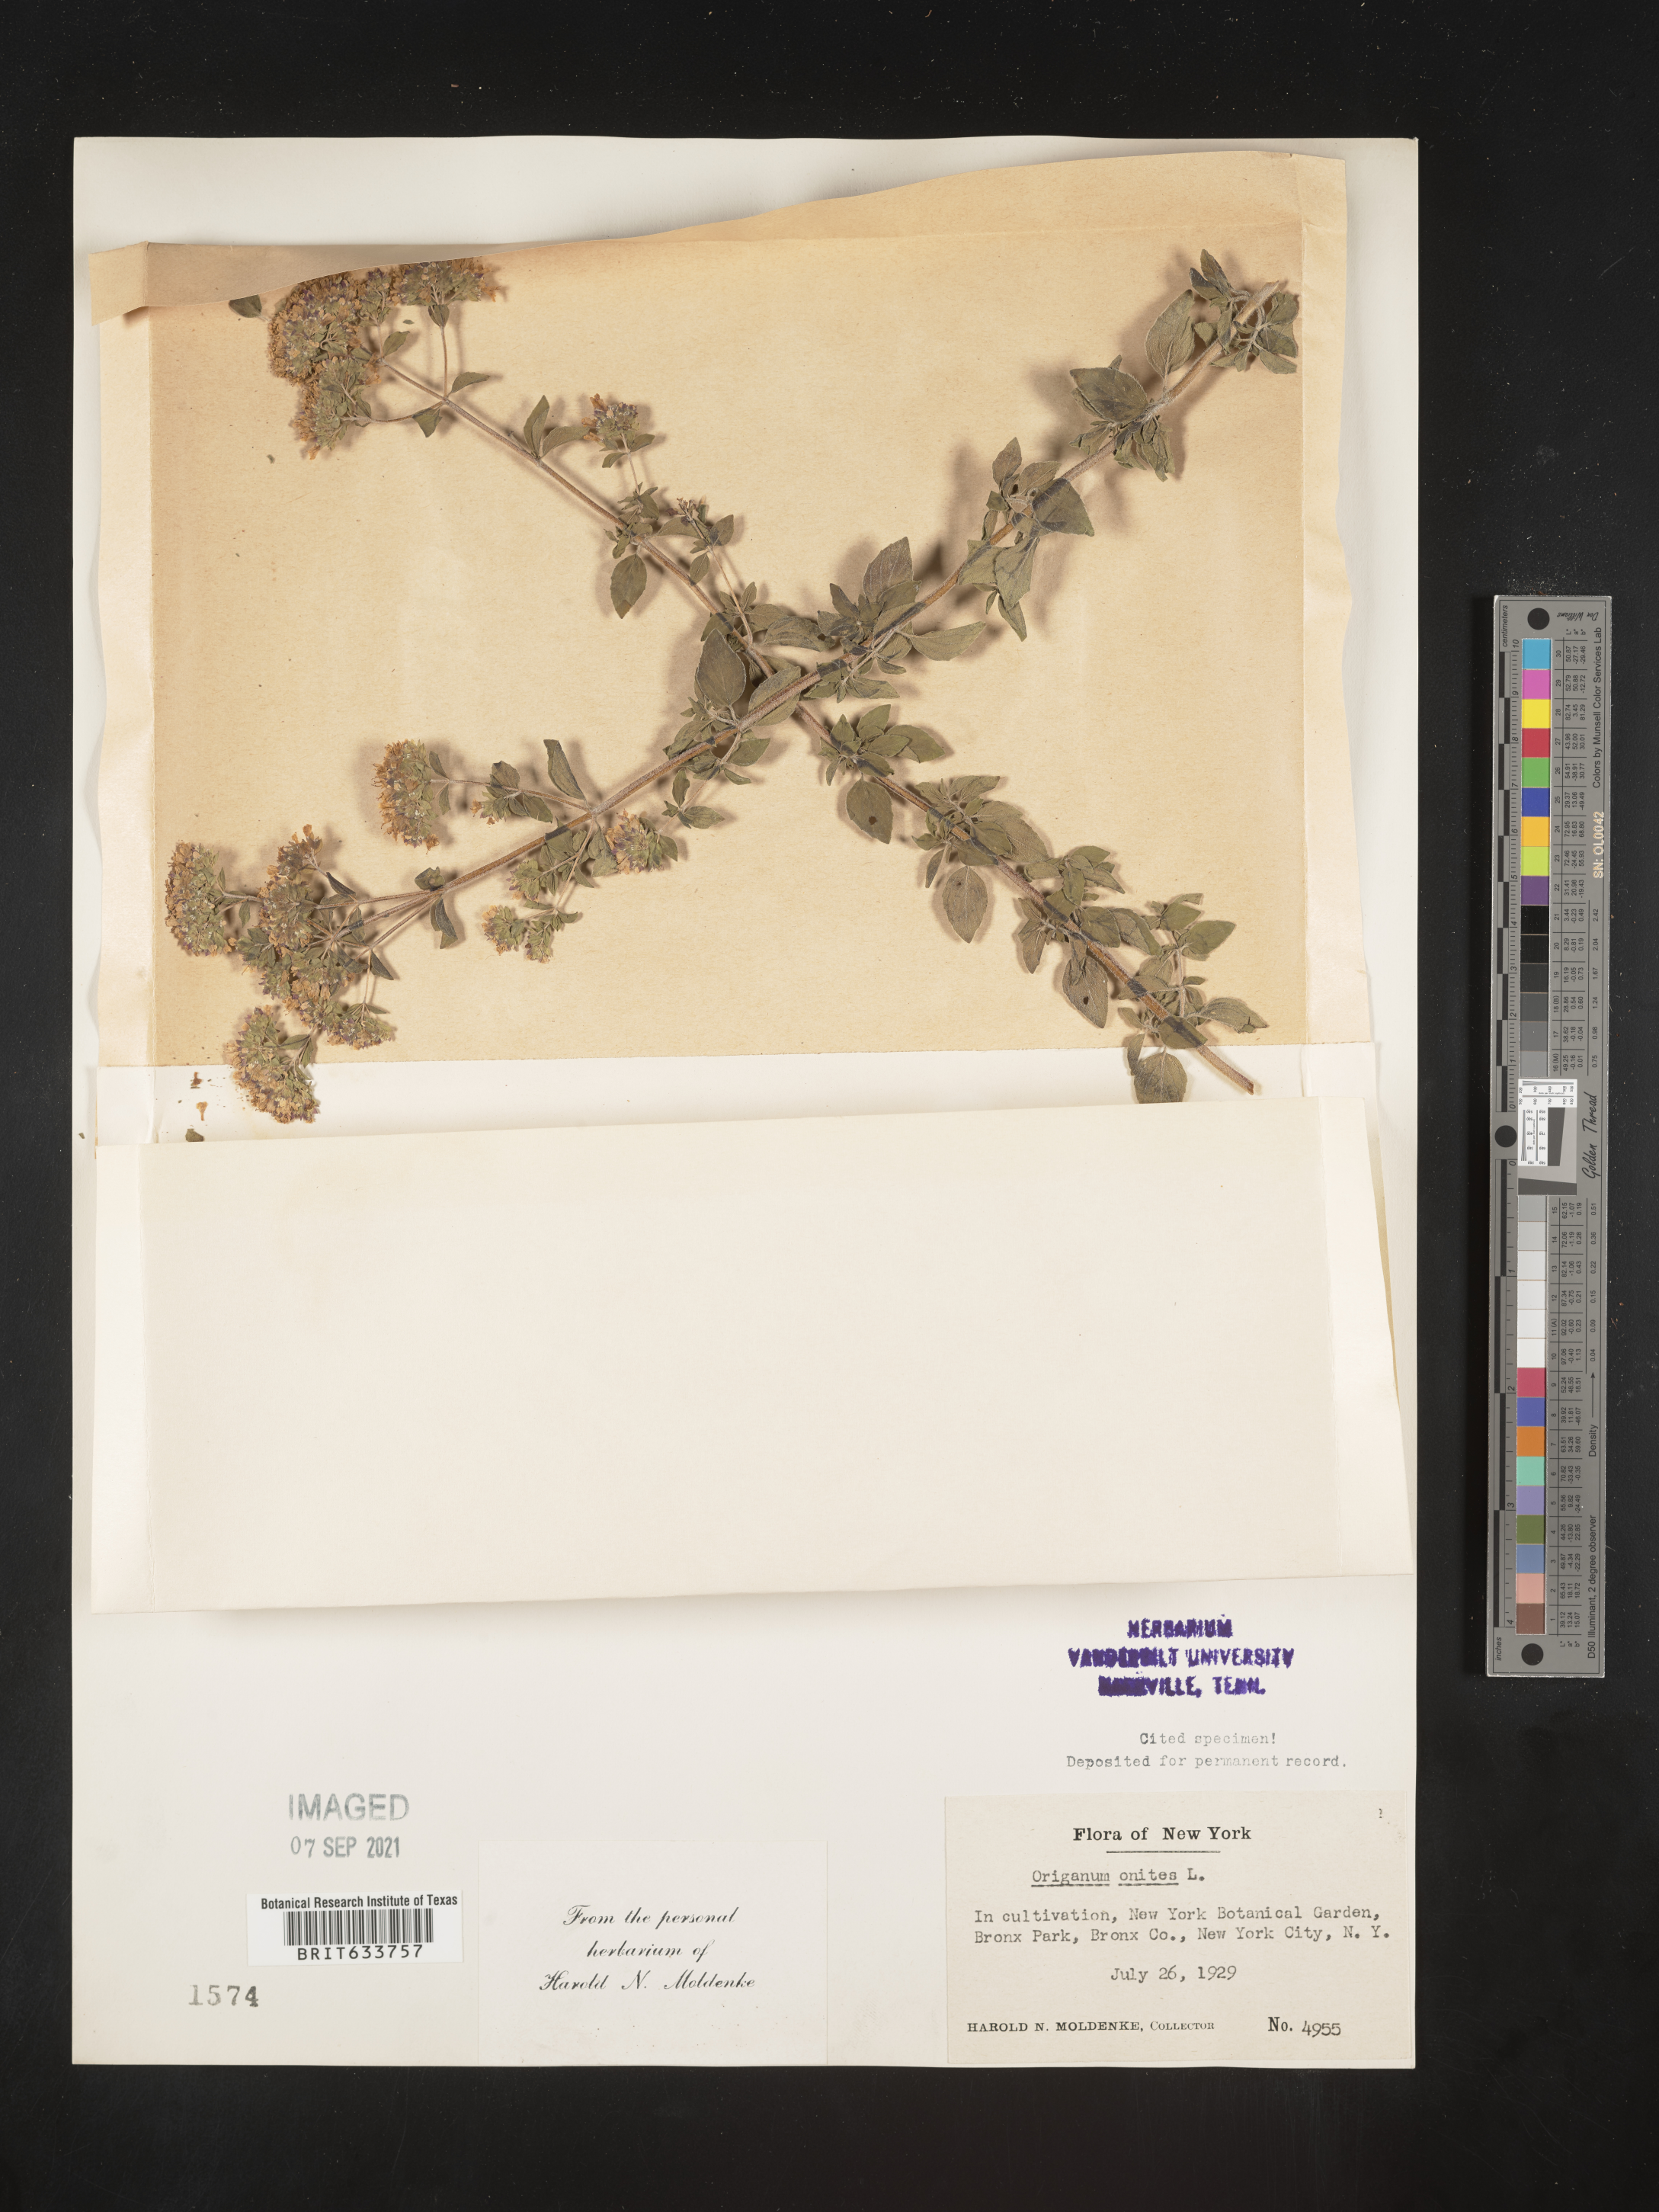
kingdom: Plantae
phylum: Tracheophyta
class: Magnoliopsida
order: Lamiales
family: Lamiaceae
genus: Origanum
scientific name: Origanum
